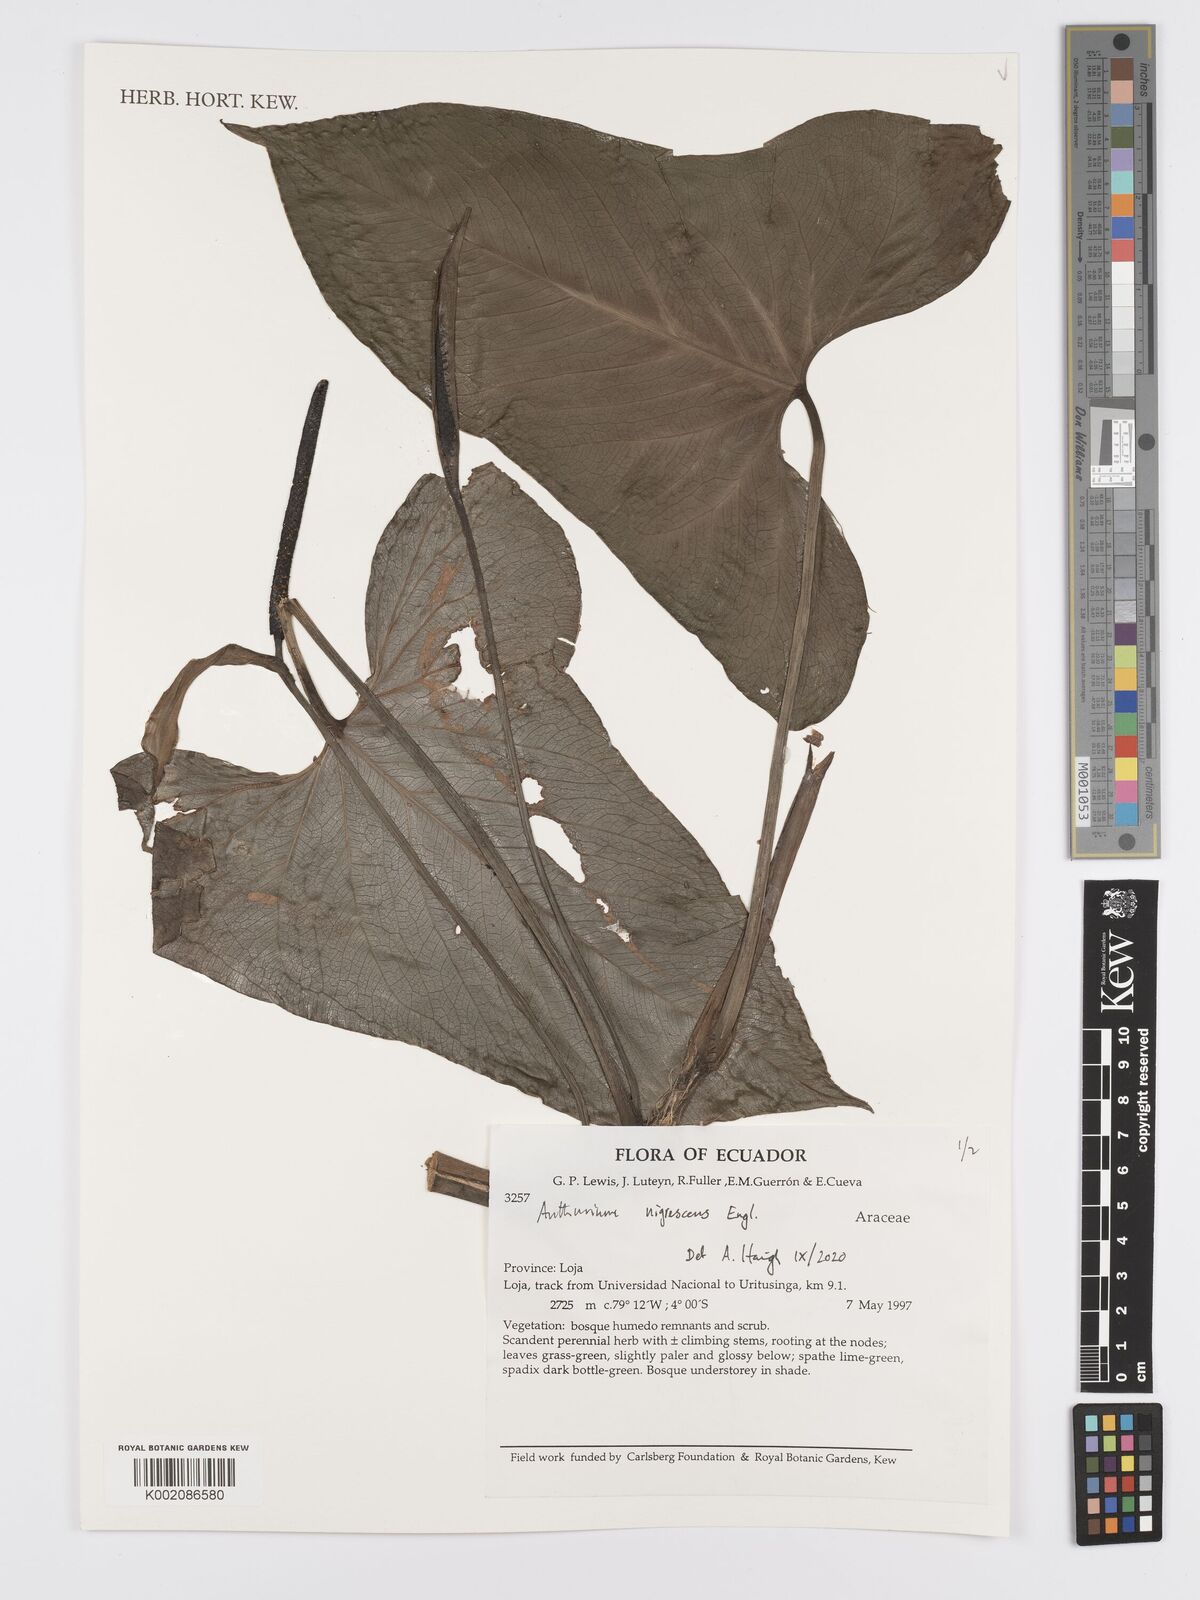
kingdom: Plantae
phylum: Tracheophyta
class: Liliopsida
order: Alismatales
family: Araceae
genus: Anthurium
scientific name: Anthurium nigrescens
